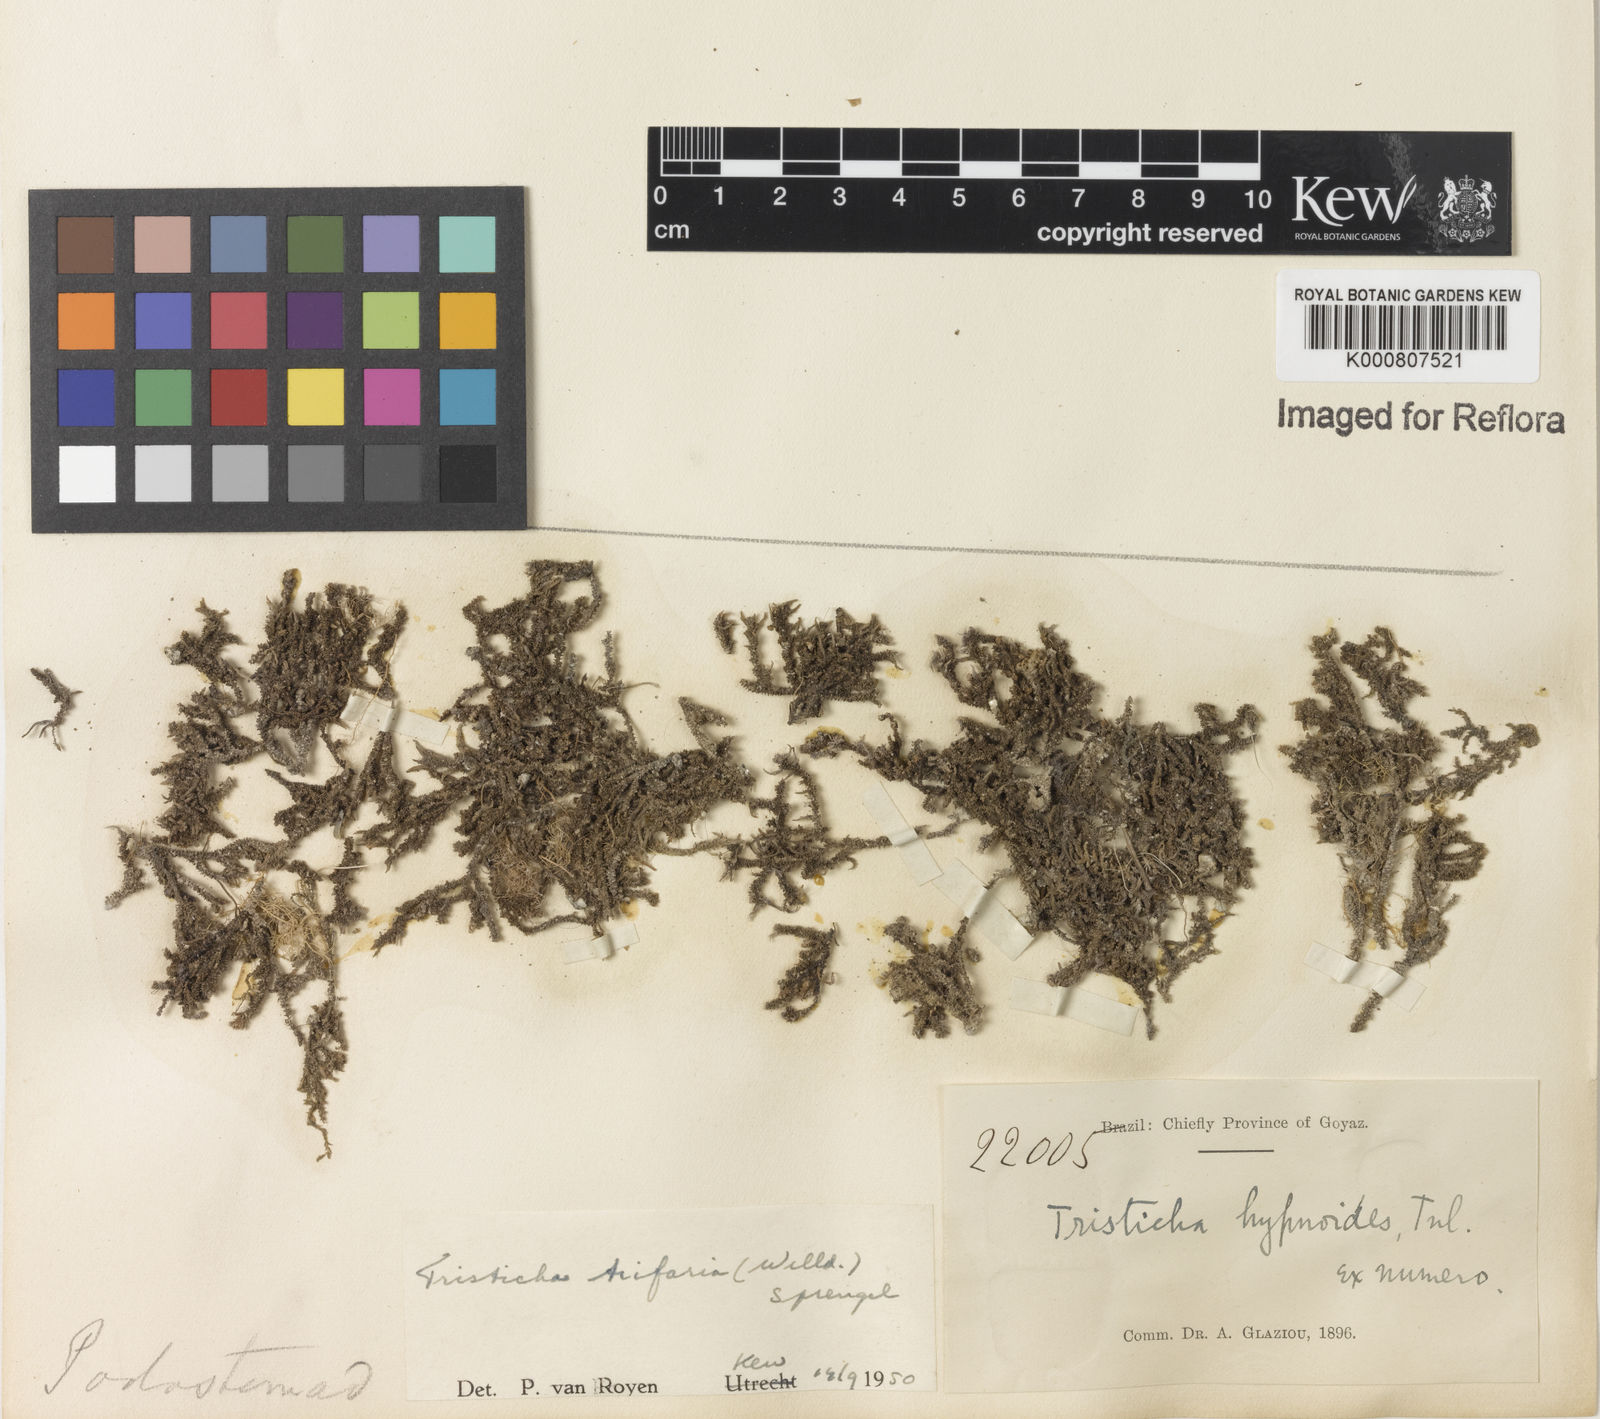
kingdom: Plantae
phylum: Tracheophyta
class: Magnoliopsida
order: Malpighiales
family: Podostemaceae
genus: Tristicha
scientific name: Tristicha trifaria
